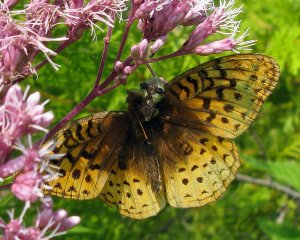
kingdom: Animalia
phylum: Arthropoda
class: Insecta
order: Lepidoptera
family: Nymphalidae
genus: Speyeria
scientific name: Speyeria cybele
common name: Great Spangled Fritillary
